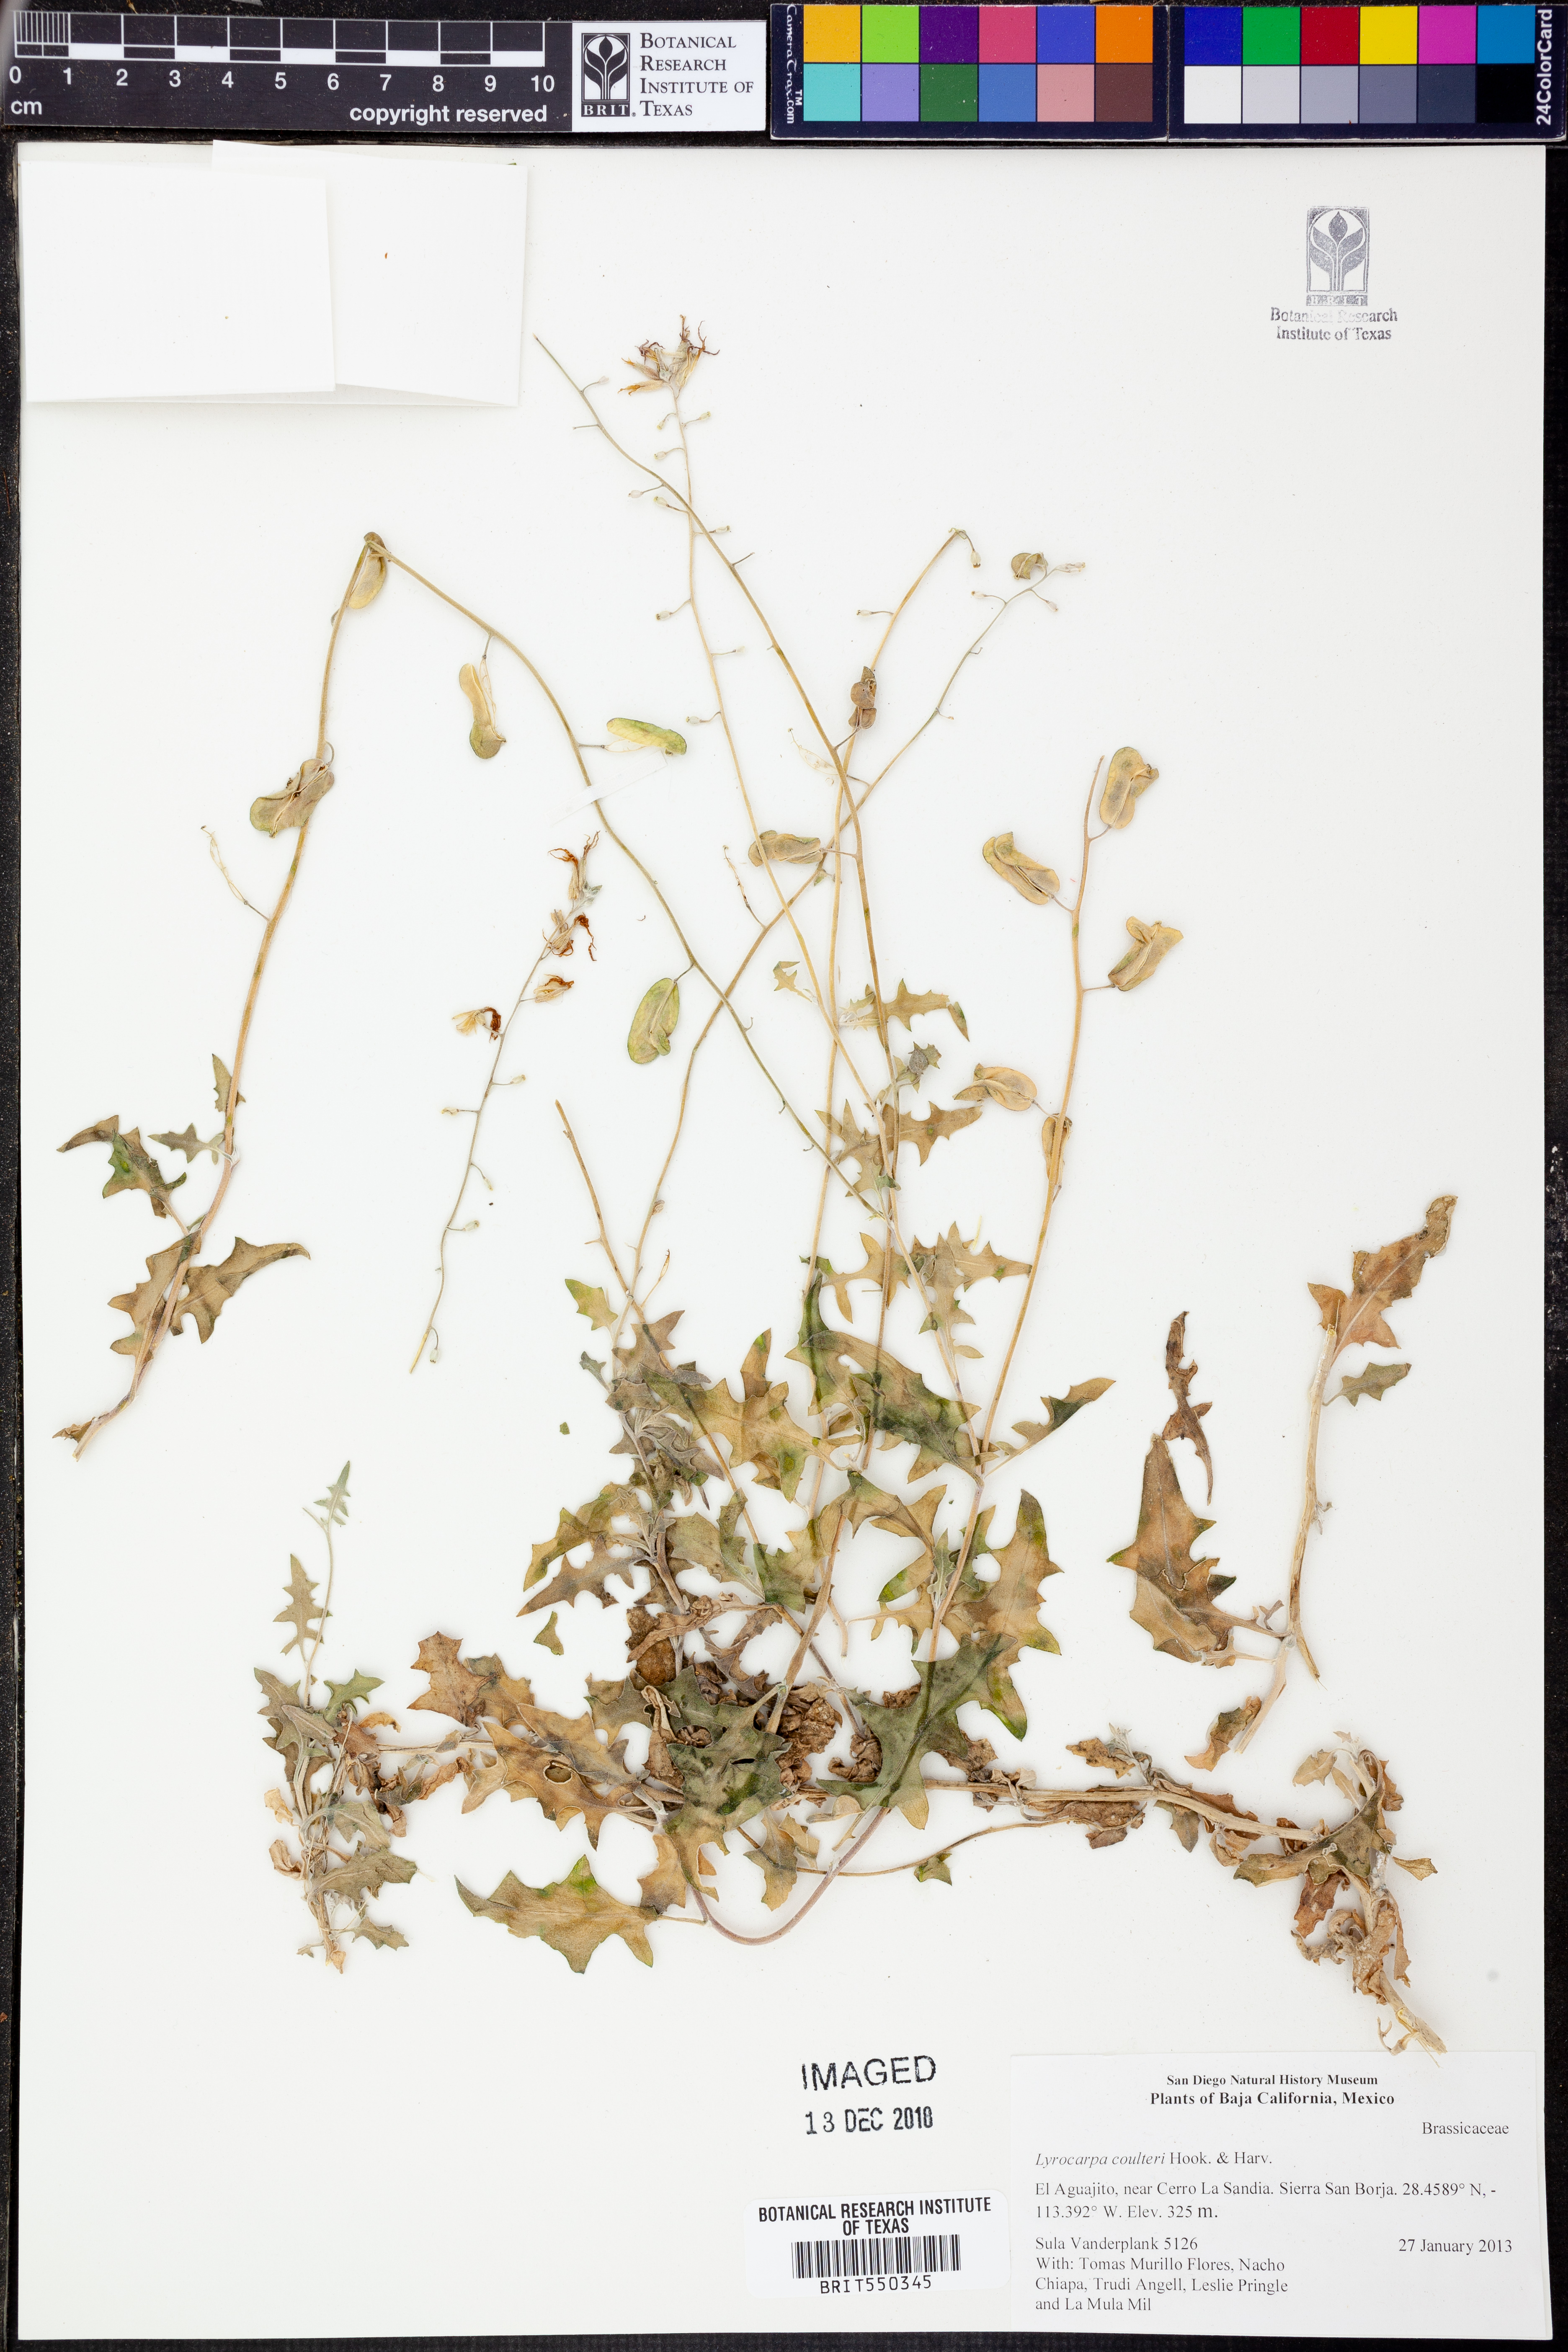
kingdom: Plantae
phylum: Tracheophyta
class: Magnoliopsida
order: Brassicales
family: Brassicaceae
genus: Lyrocarpa
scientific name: Lyrocarpa coulteri
